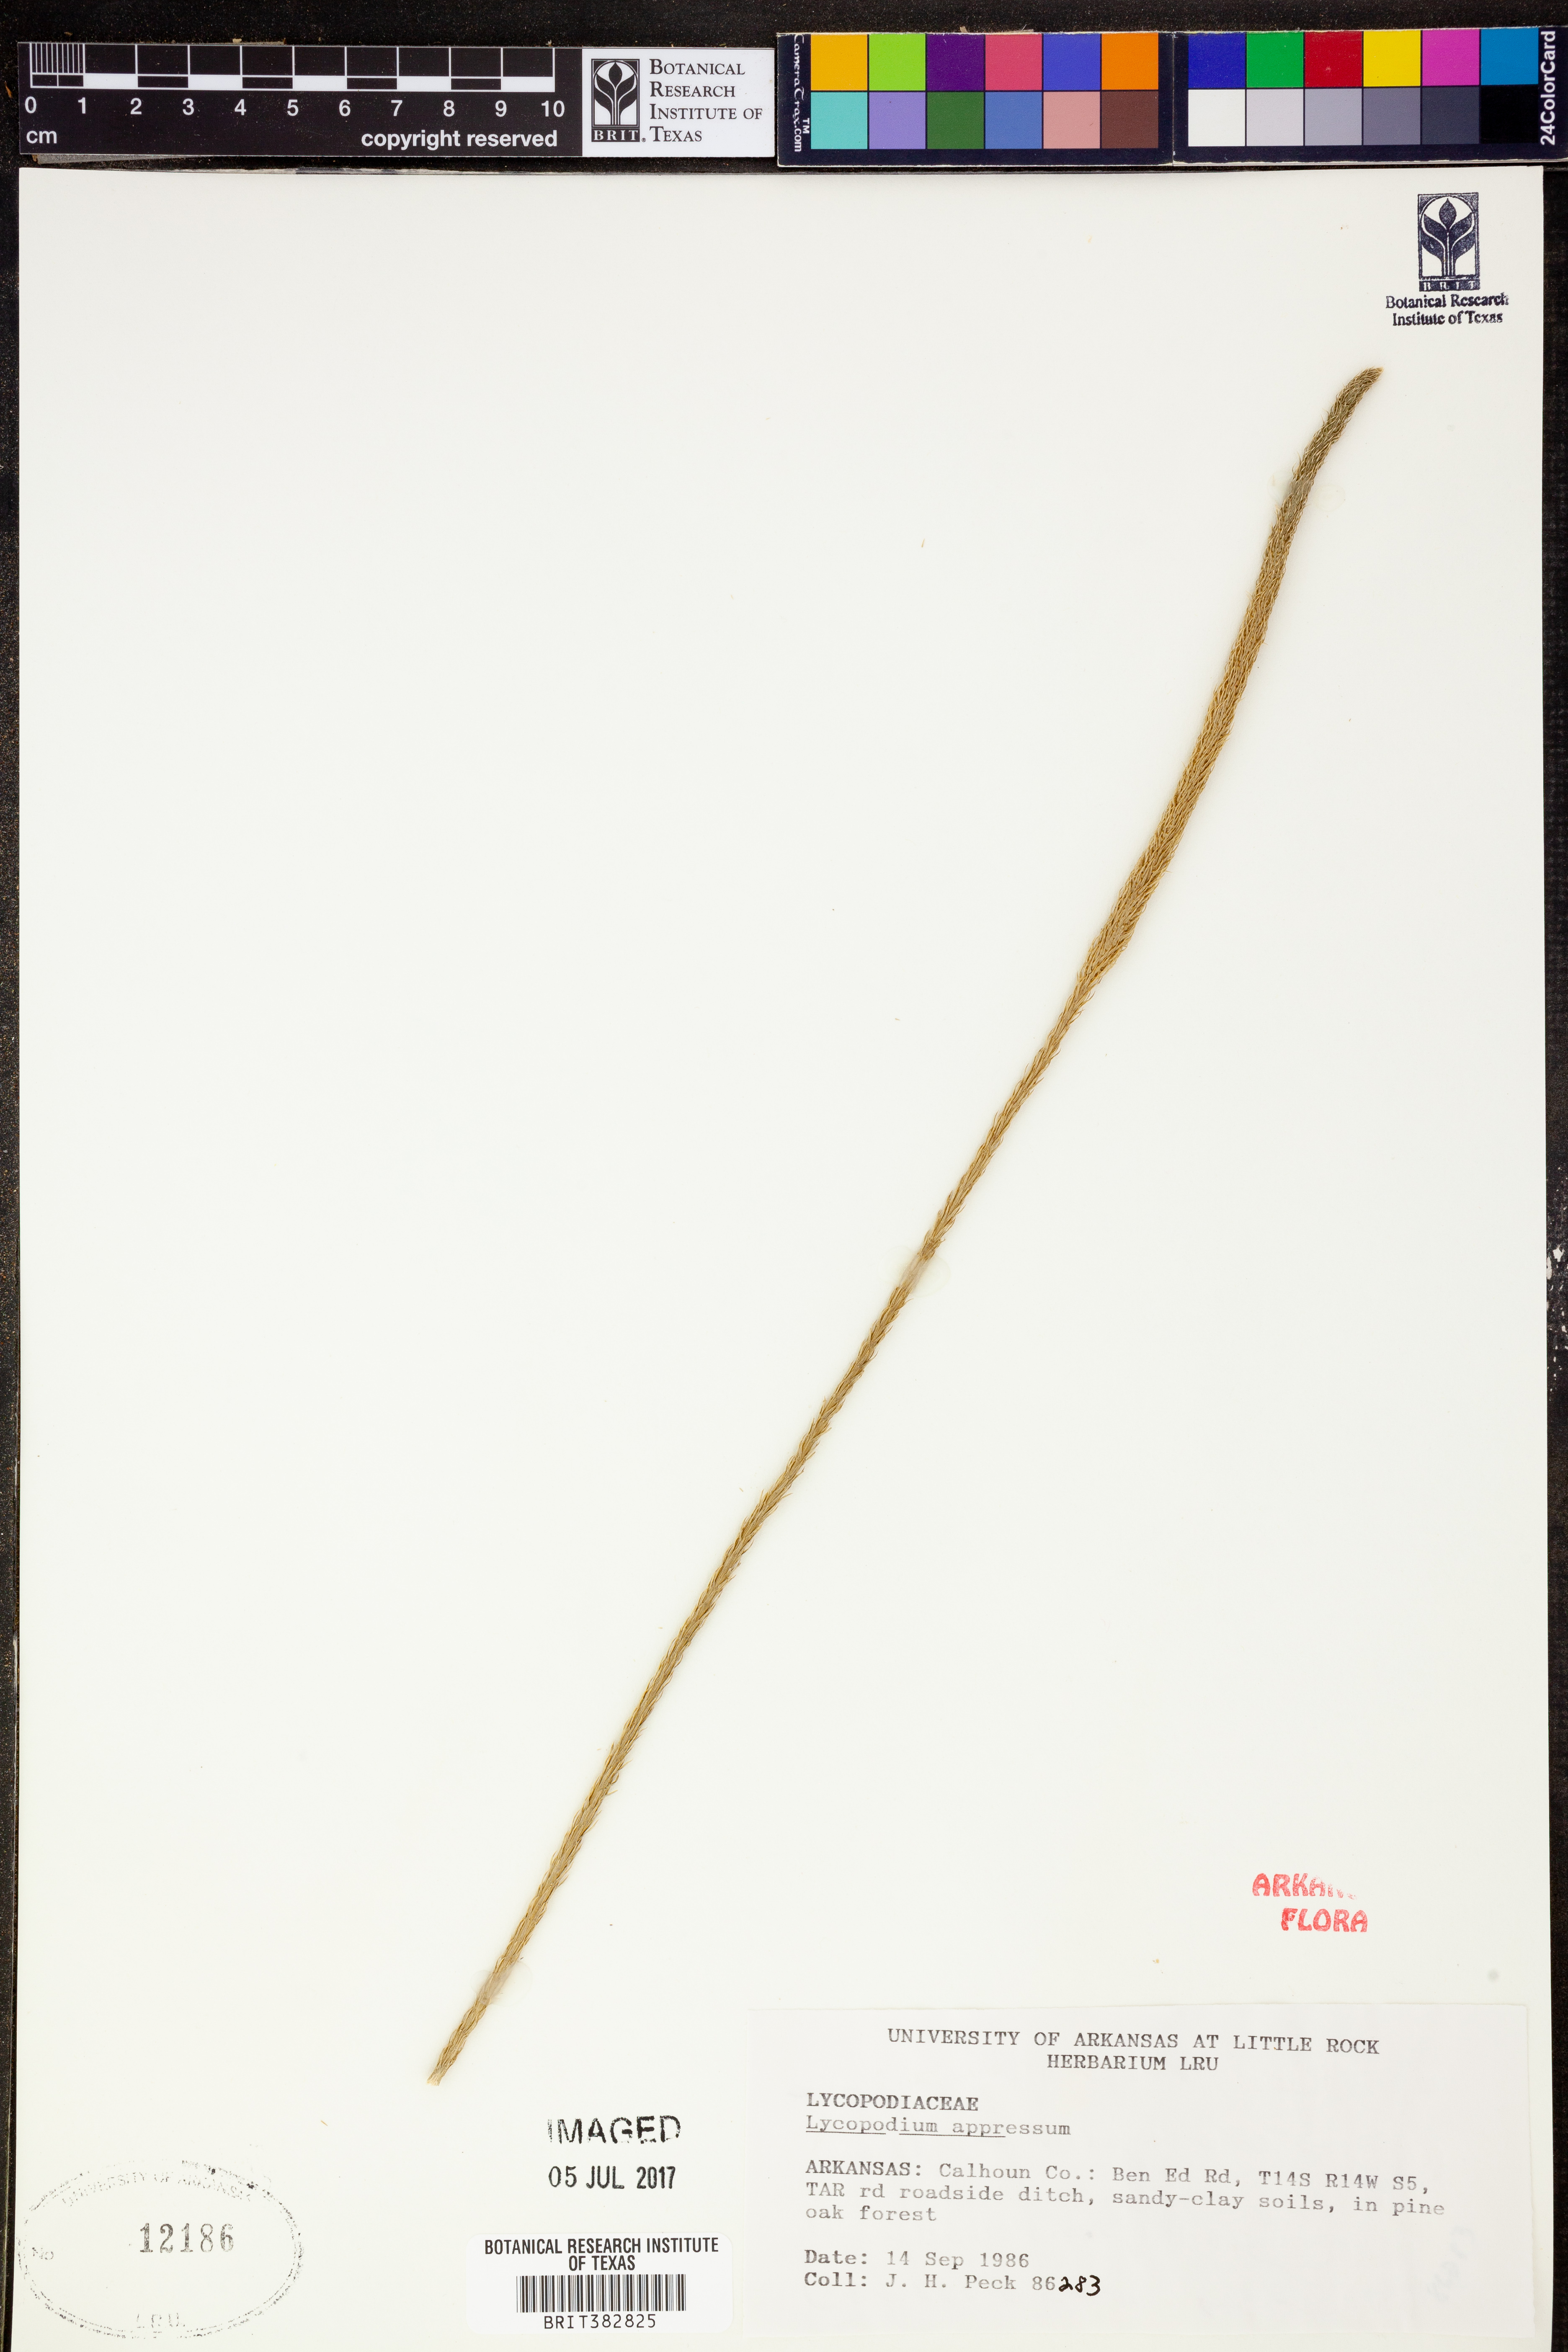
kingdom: Plantae
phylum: Tracheophyta
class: Lycopodiopsida
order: Lycopodiales
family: Lycopodiaceae
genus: Lycopodiella
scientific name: Lycopodiella appressa
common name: Appressed bog clubmoss
